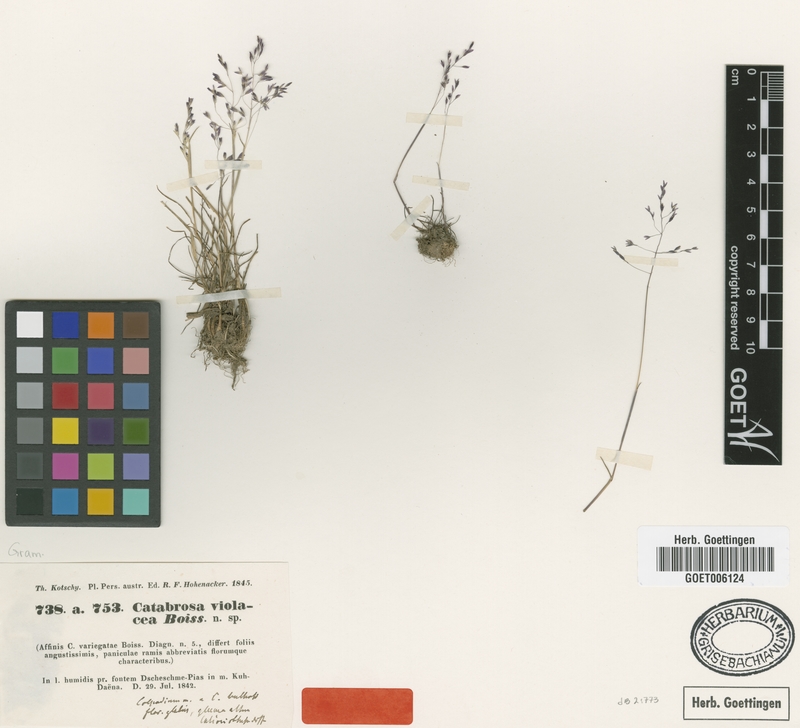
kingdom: Plantae
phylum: Tracheophyta
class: Liliopsida
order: Poales
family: Poaceae
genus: Catabrosella
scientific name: Catabrosella violacea
